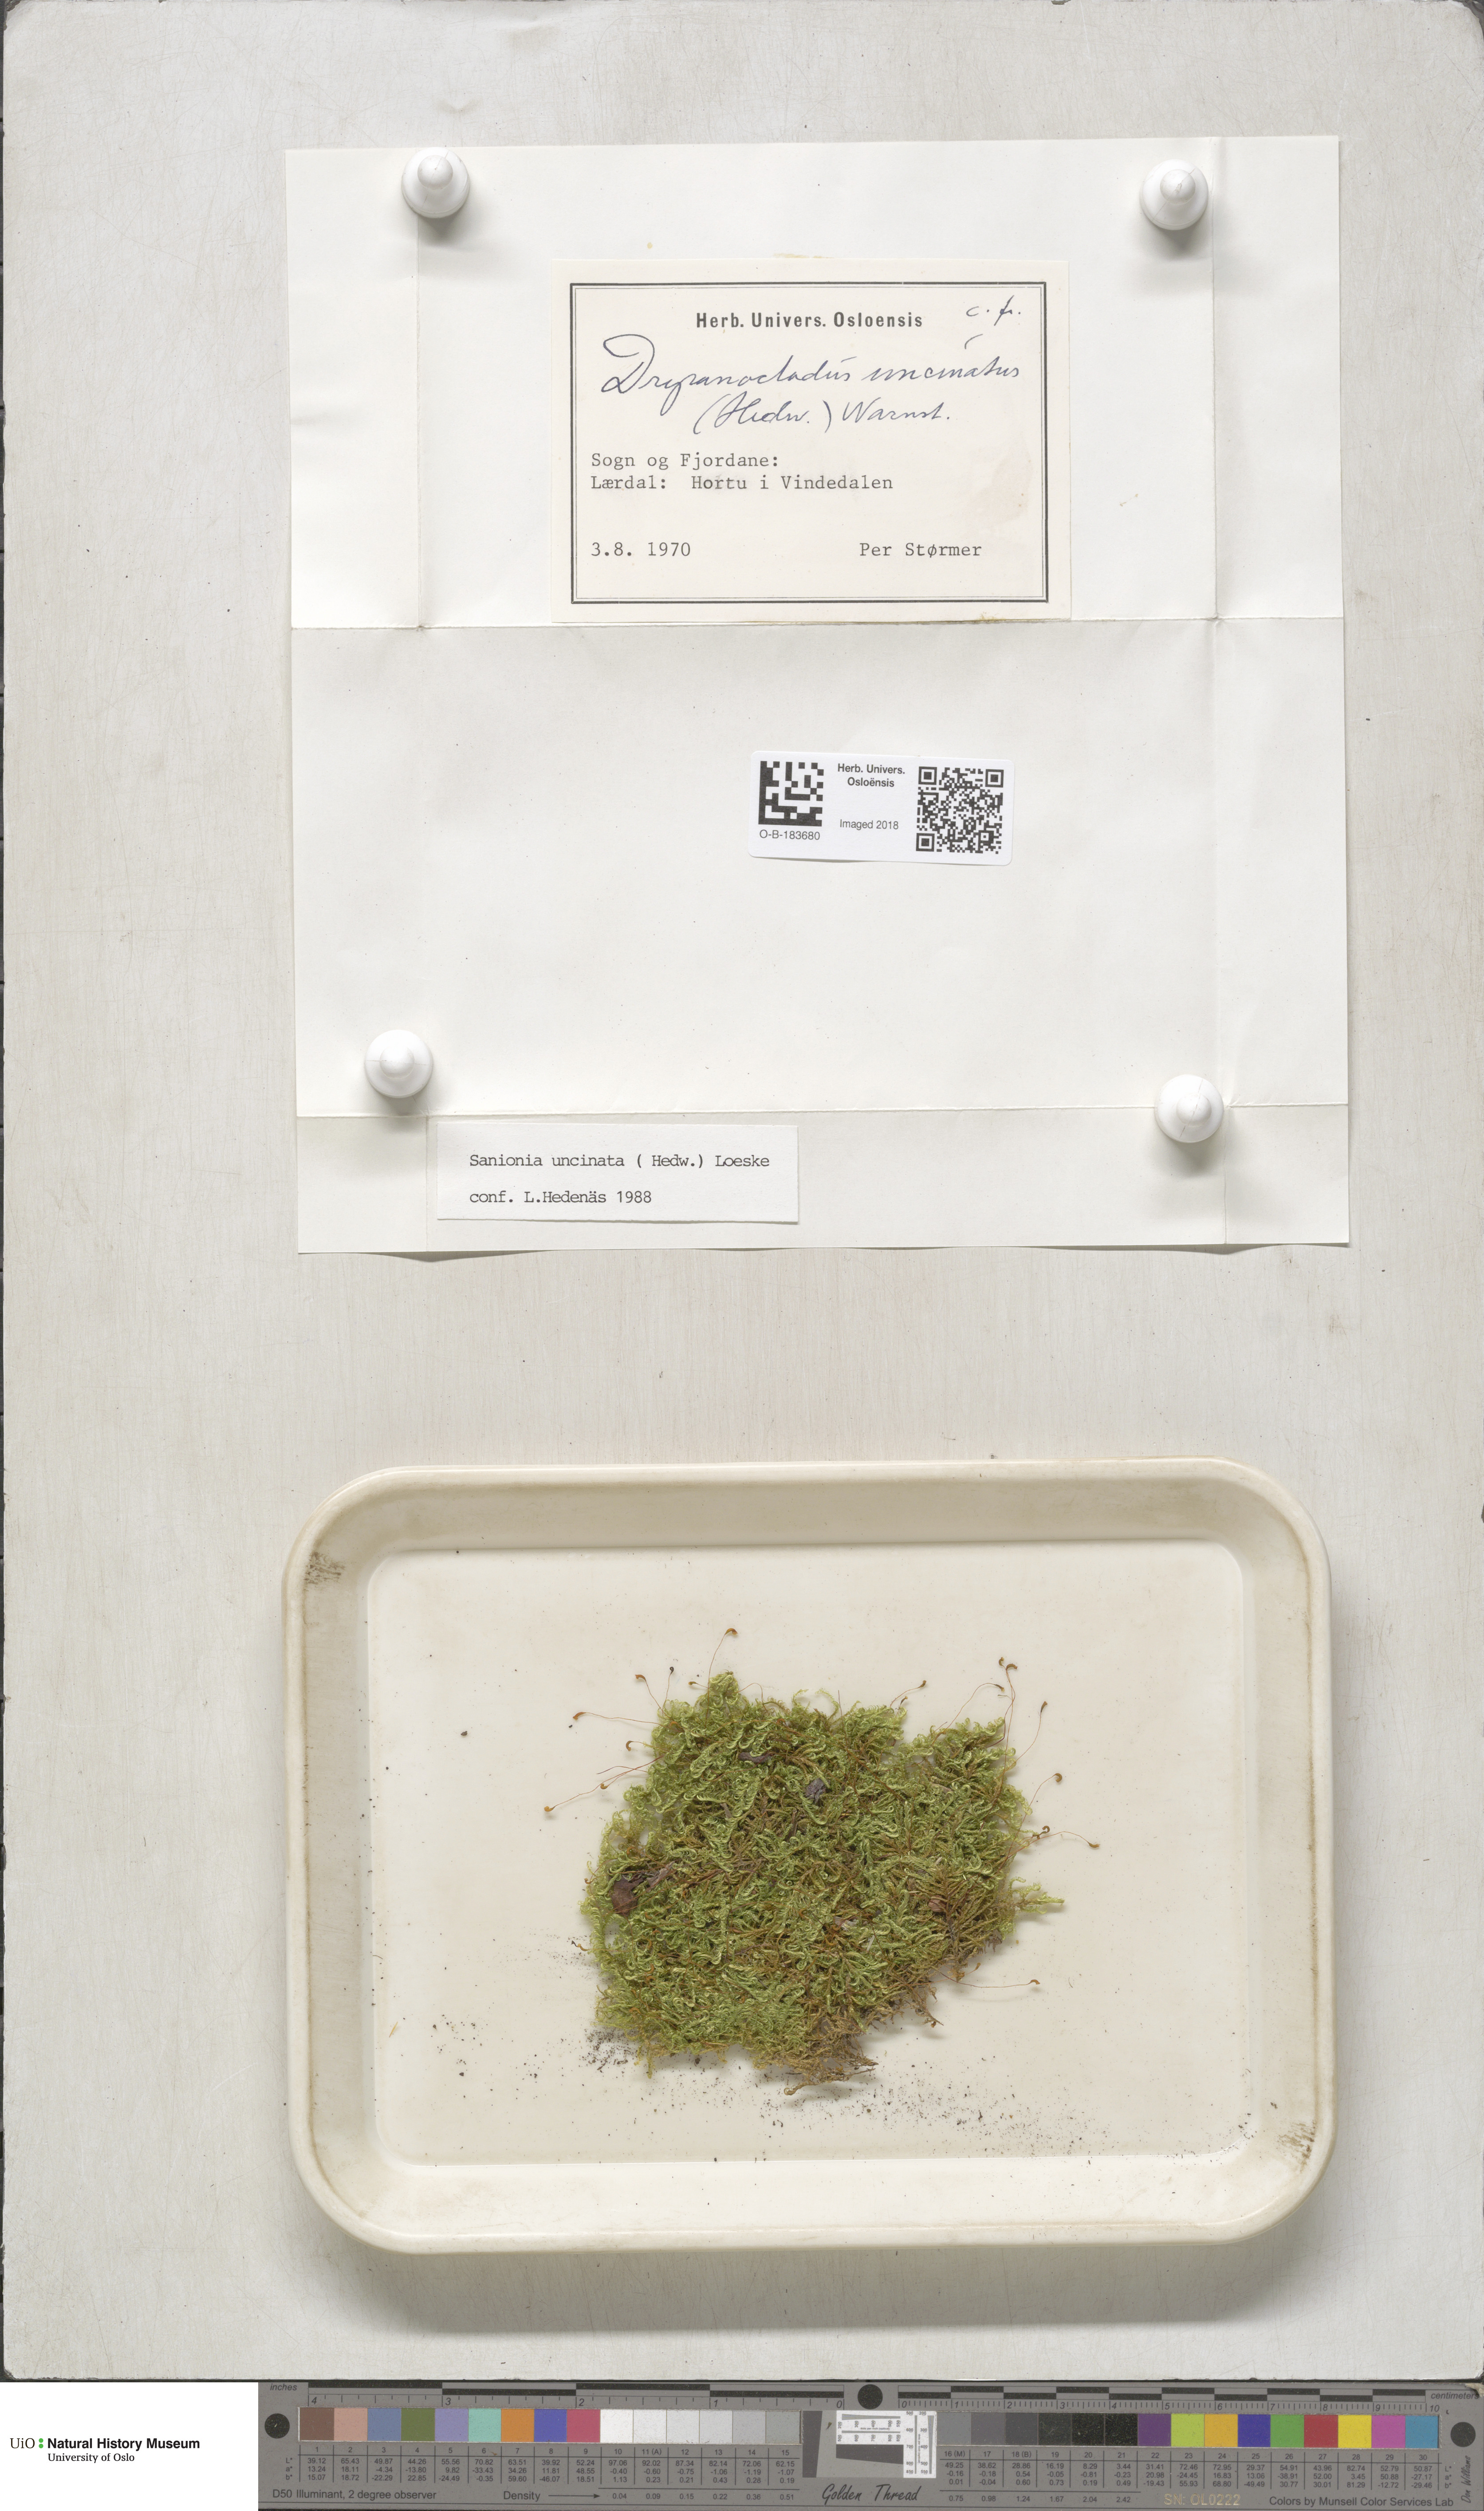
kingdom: Plantae
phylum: Bryophyta
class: Bryopsida
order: Hypnales
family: Scorpidiaceae
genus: Sanionia
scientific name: Sanionia uncinata
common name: Sickle moss
